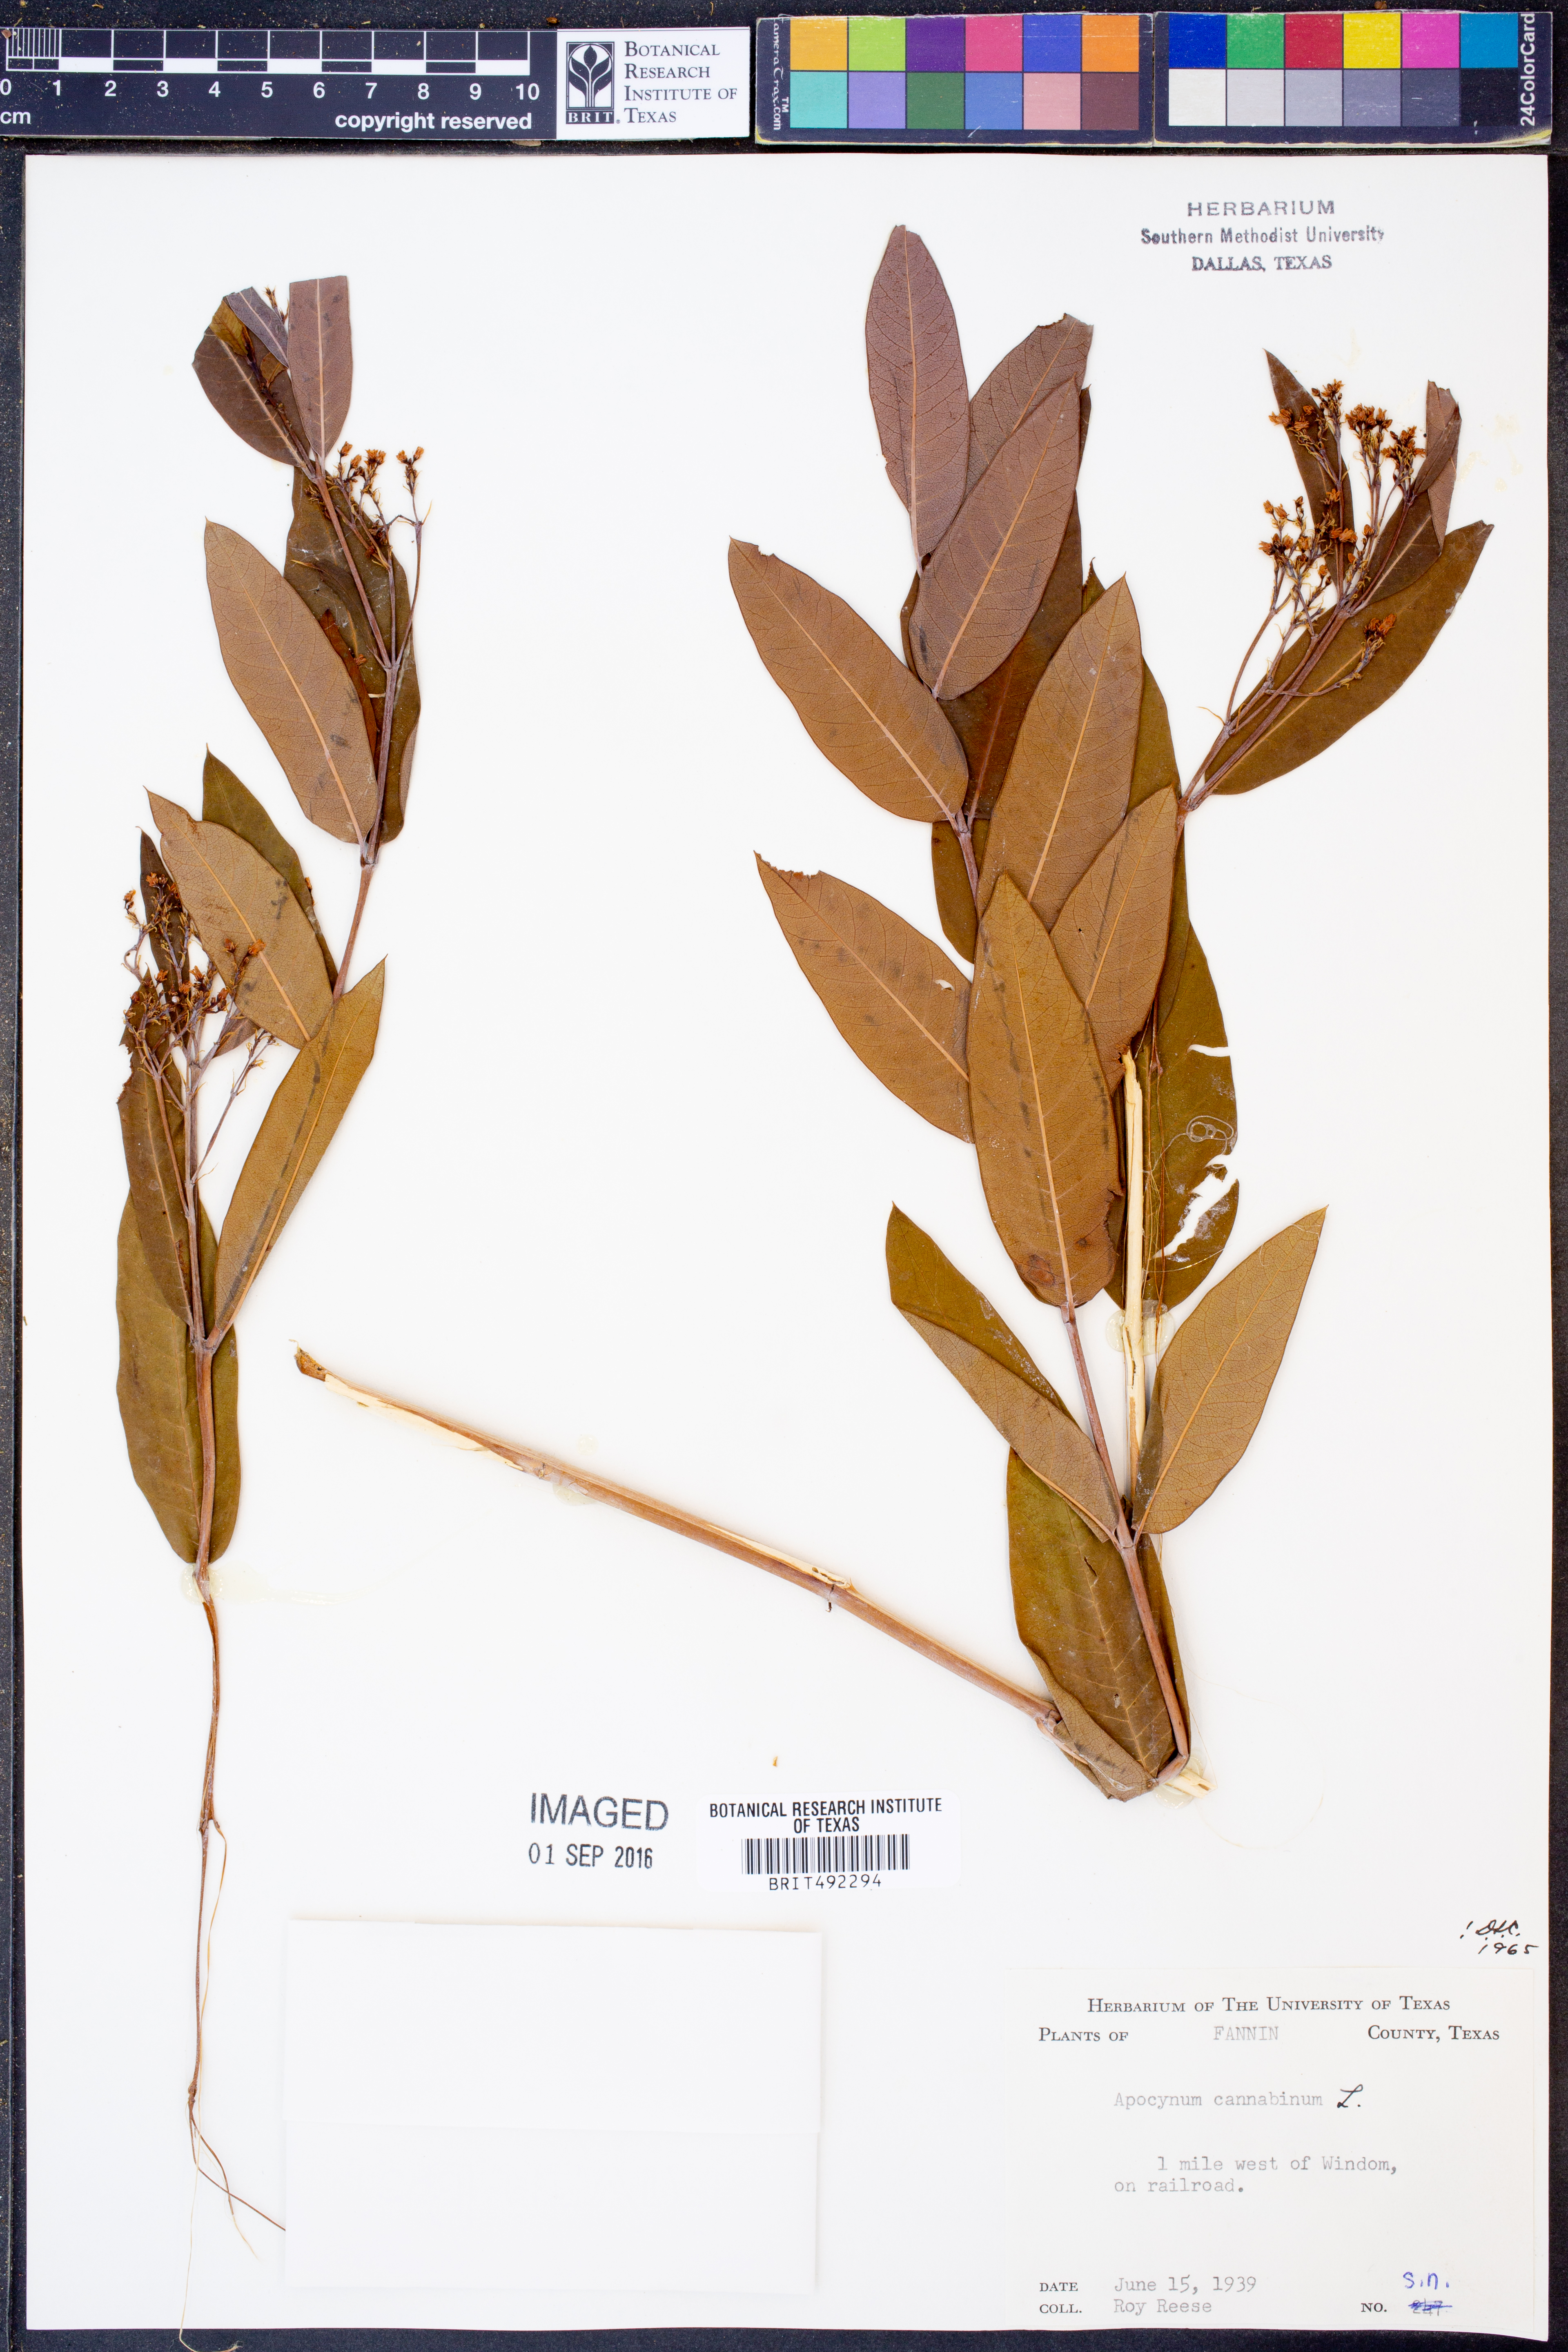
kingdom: Plantae
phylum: Tracheophyta
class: Magnoliopsida
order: Gentianales
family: Apocynaceae
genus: Apocynum
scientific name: Apocynum cannabinum
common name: Hemp dogbane
